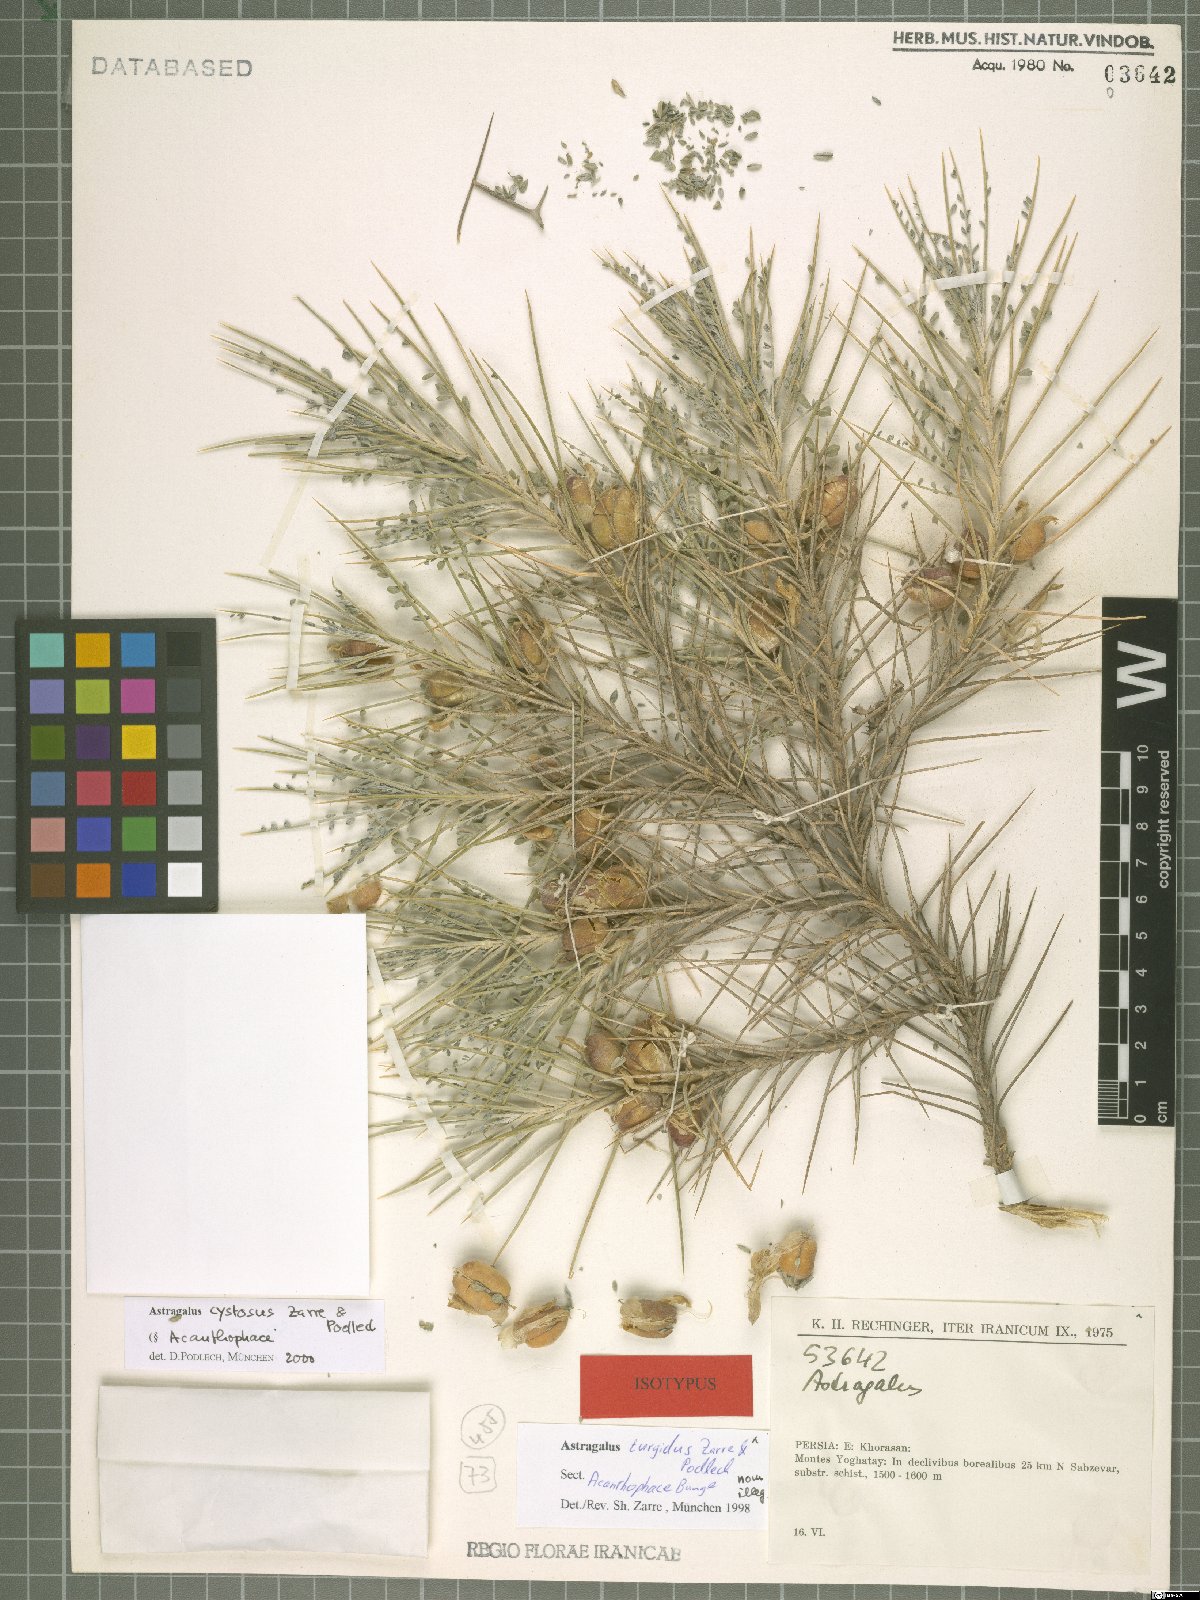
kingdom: Plantae
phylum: Tracheophyta
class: Magnoliopsida
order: Fabales
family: Fabaceae
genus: Astragalus
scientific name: Astragalus cystosus
